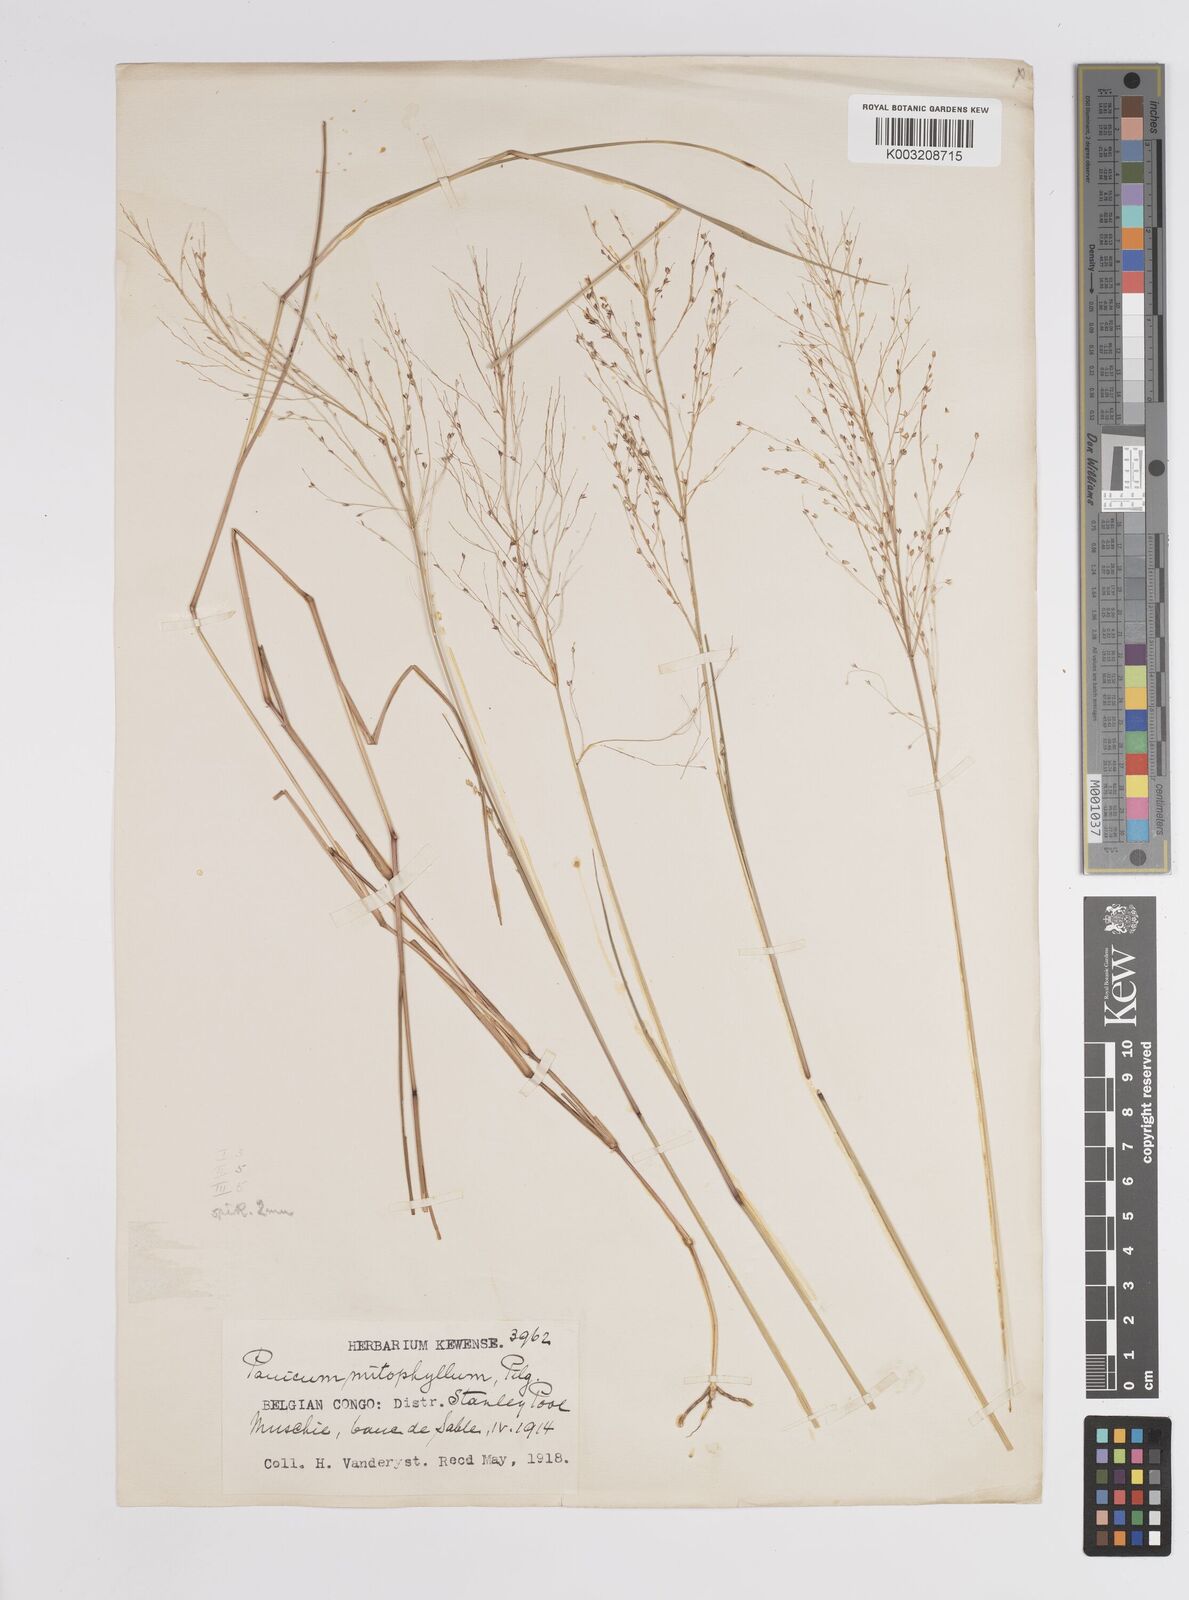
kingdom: Plantae
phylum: Tracheophyta
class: Liliopsida
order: Poales
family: Poaceae
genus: Panicum
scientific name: Panicum congoense
